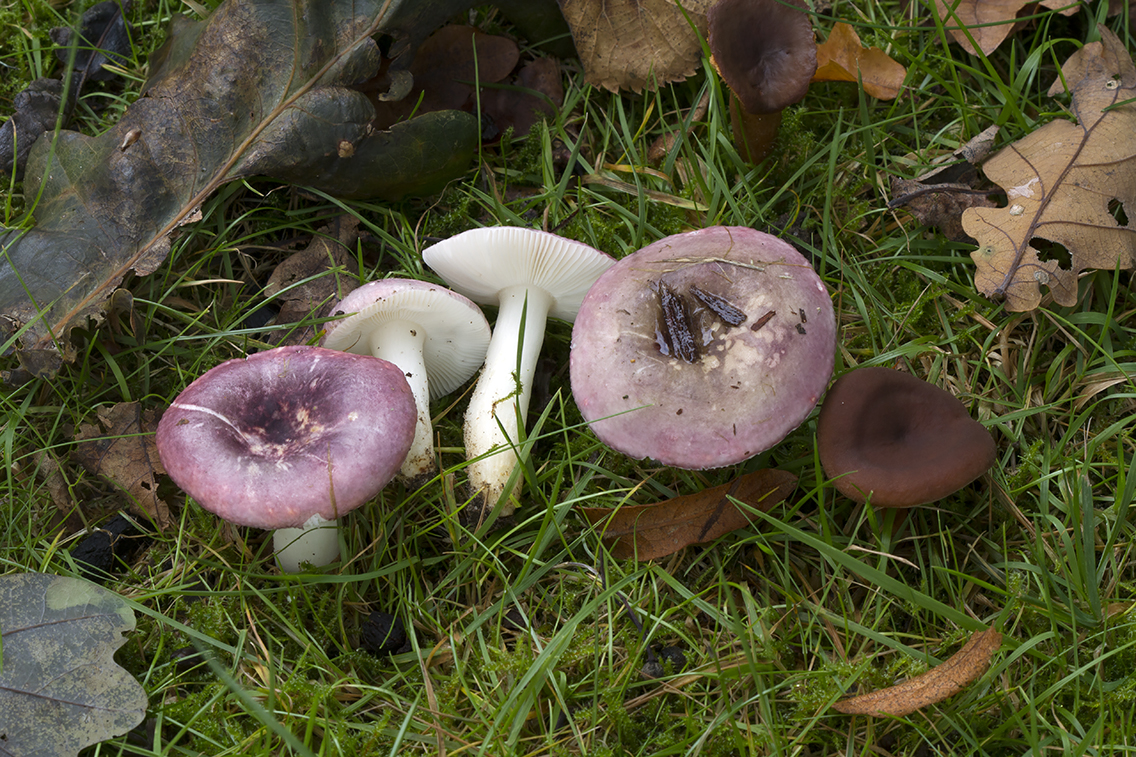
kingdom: Fungi
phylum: Basidiomycota
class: Agaricomycetes
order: Russulales
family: Russulaceae
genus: Russula
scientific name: Russula fragilis
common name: savbladet skørhat
